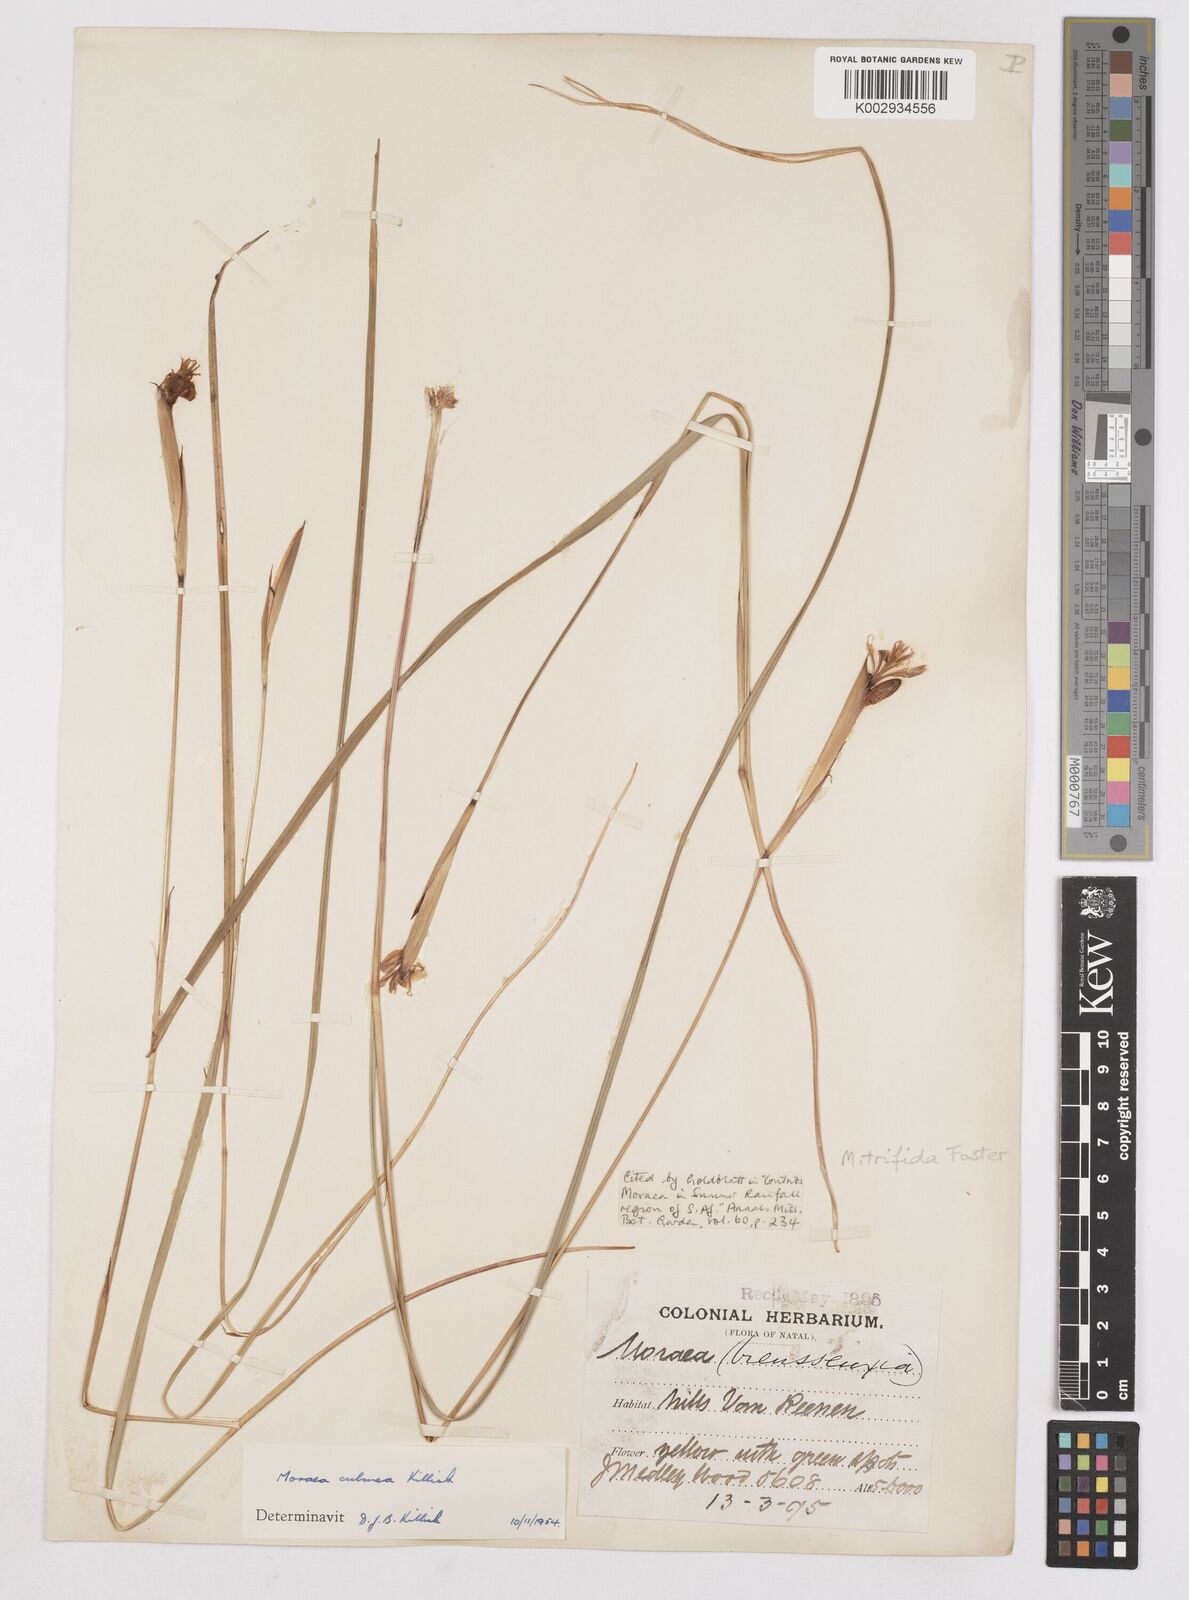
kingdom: Plantae
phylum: Tracheophyta
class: Liliopsida
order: Asparagales
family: Iridaceae
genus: Moraea
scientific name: Moraea trifida
